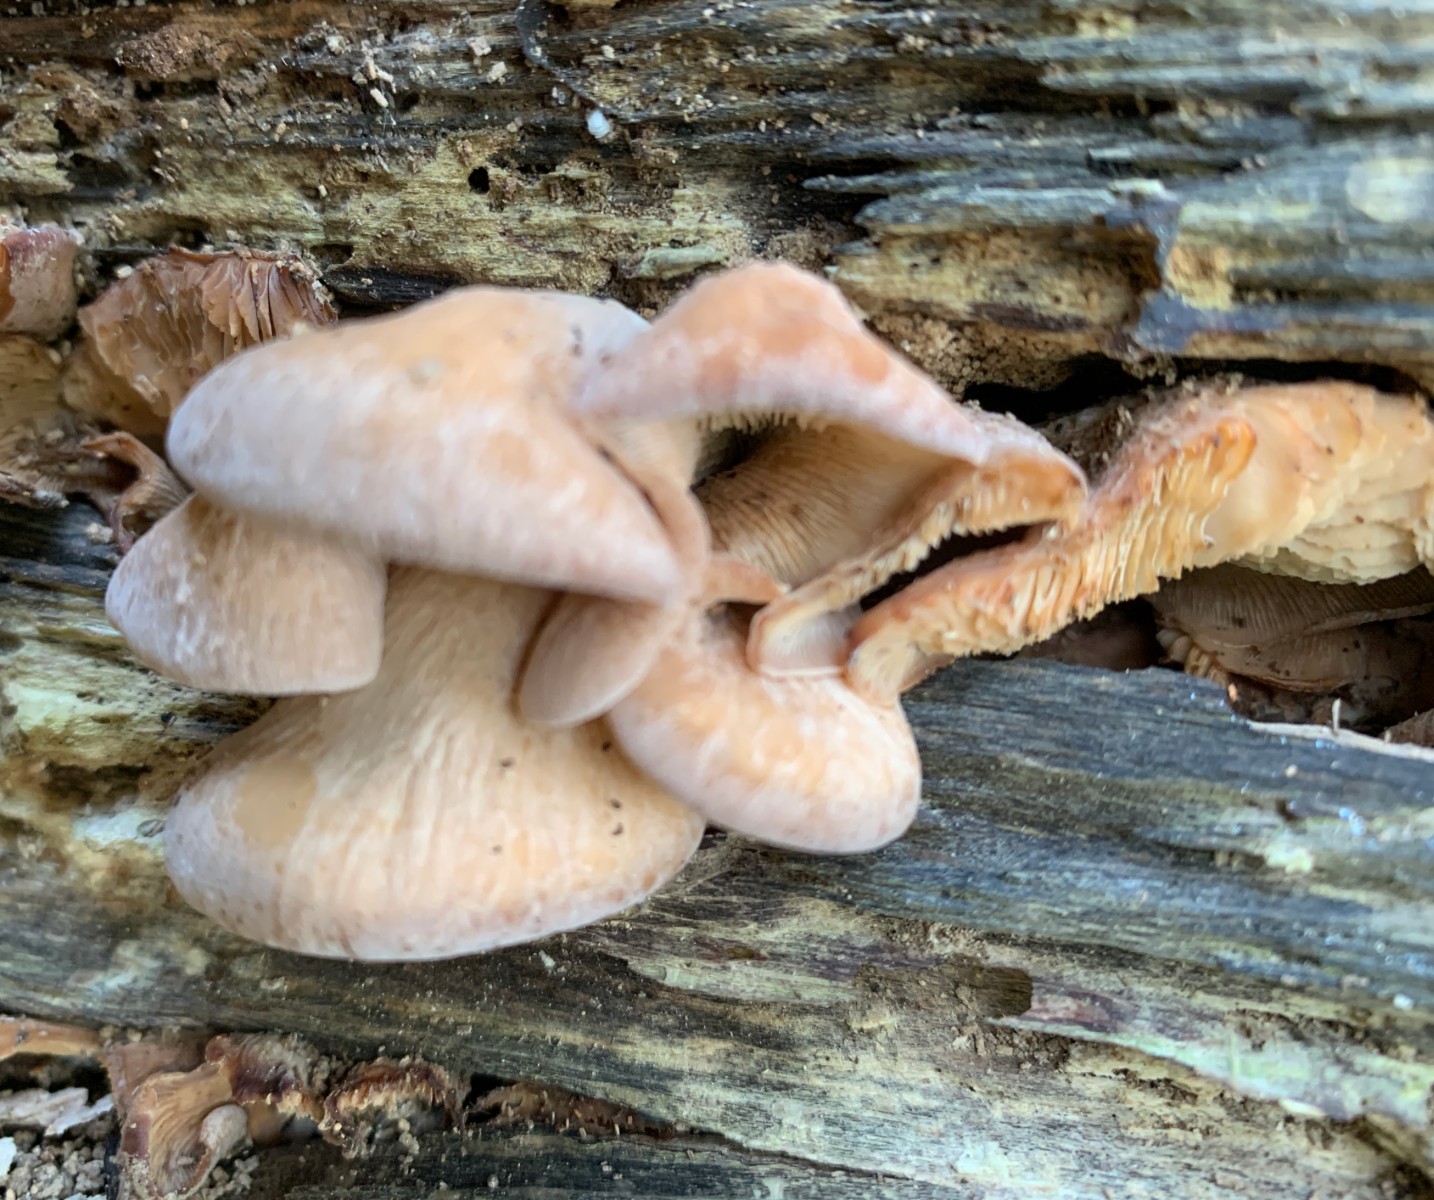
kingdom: Fungi
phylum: Basidiomycota
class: Agaricomycetes
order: Russulales
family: Auriscalpiaceae
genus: Lentinellus
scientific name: Lentinellus ursinus
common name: børstehåret savbladhat
